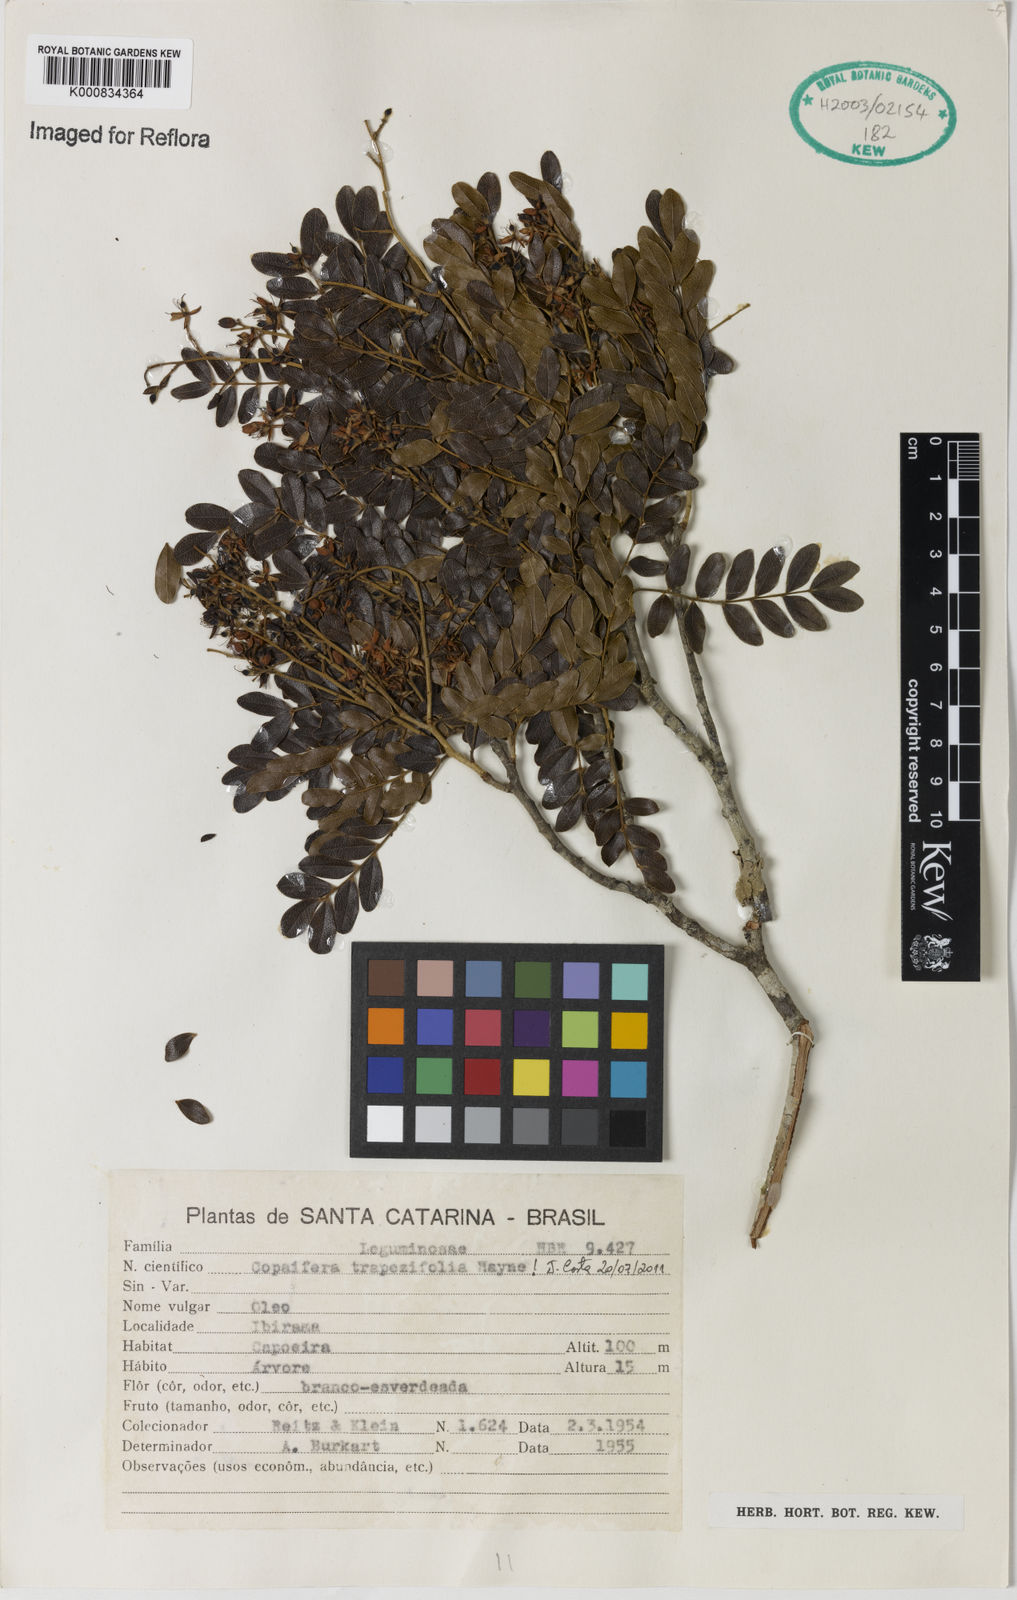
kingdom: Plantae
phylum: Tracheophyta
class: Magnoliopsida
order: Fabales
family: Fabaceae
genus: Copaifera
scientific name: Copaifera trapezifolia
